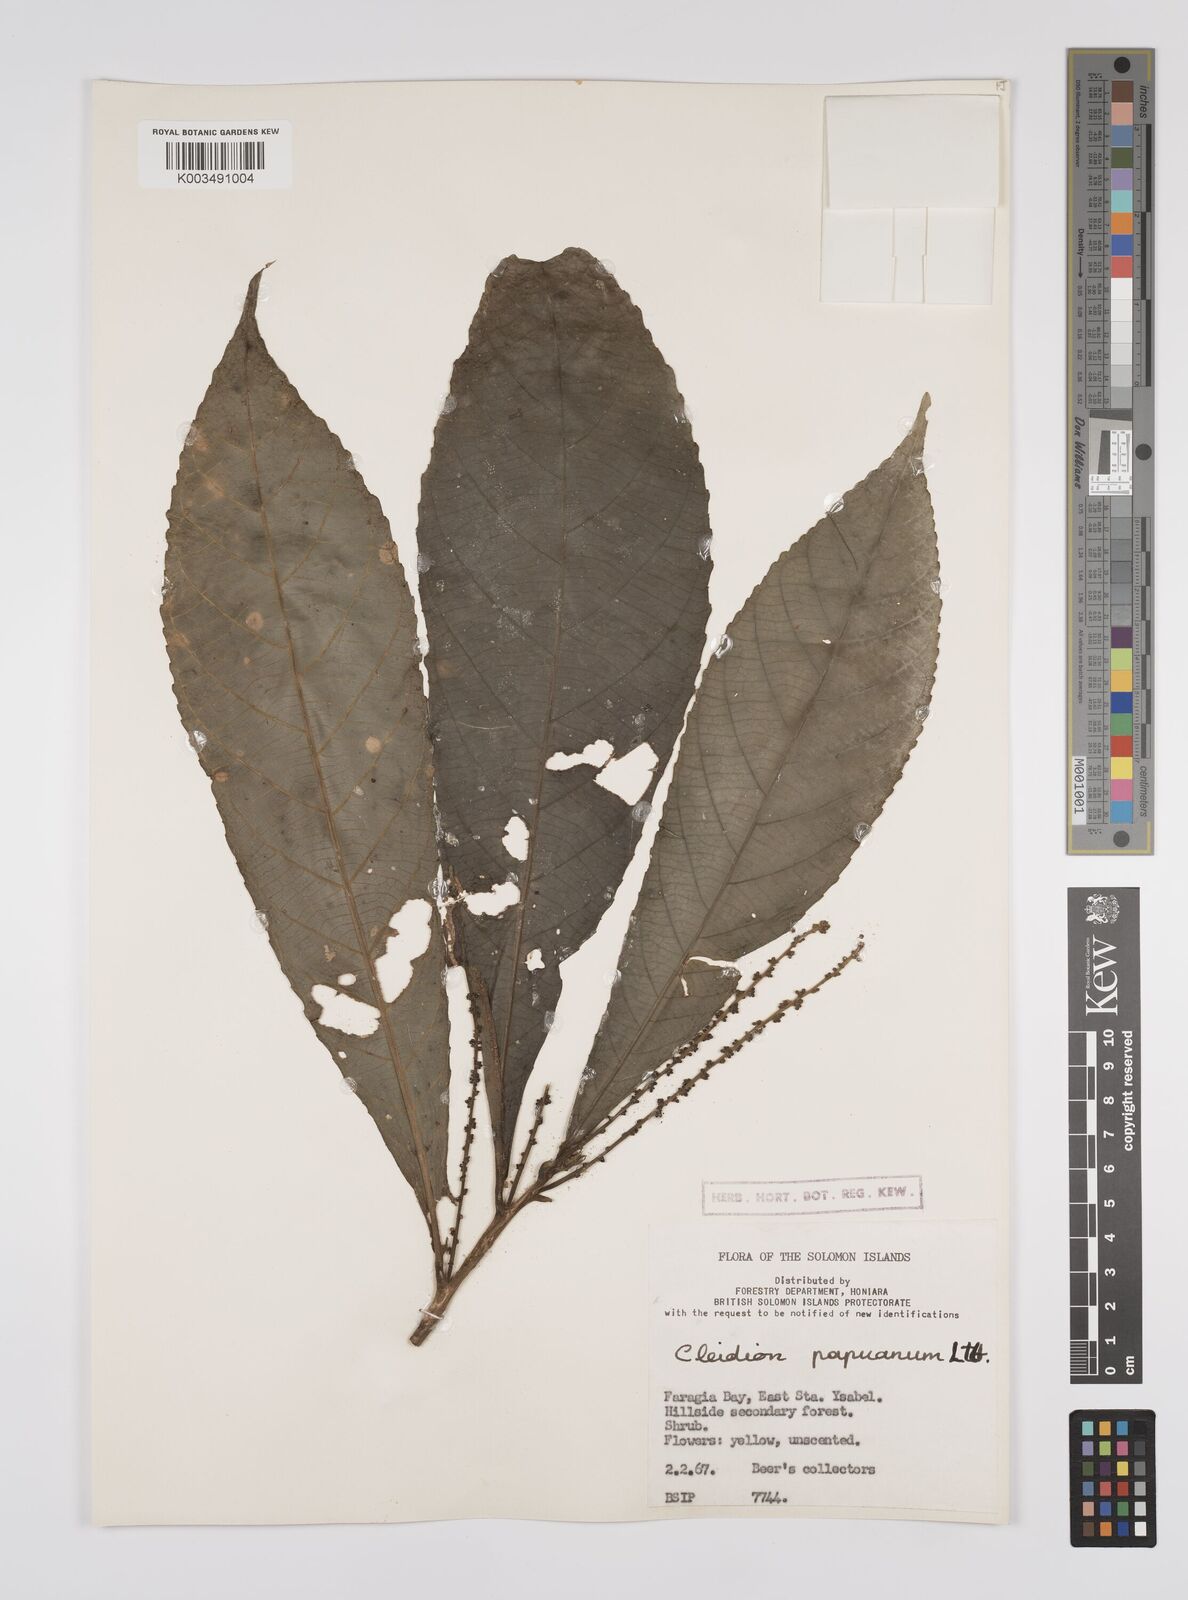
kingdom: Plantae
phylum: Tracheophyta
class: Magnoliopsida
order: Malpighiales
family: Euphorbiaceae
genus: Cleidion
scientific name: Cleidion papuanum
